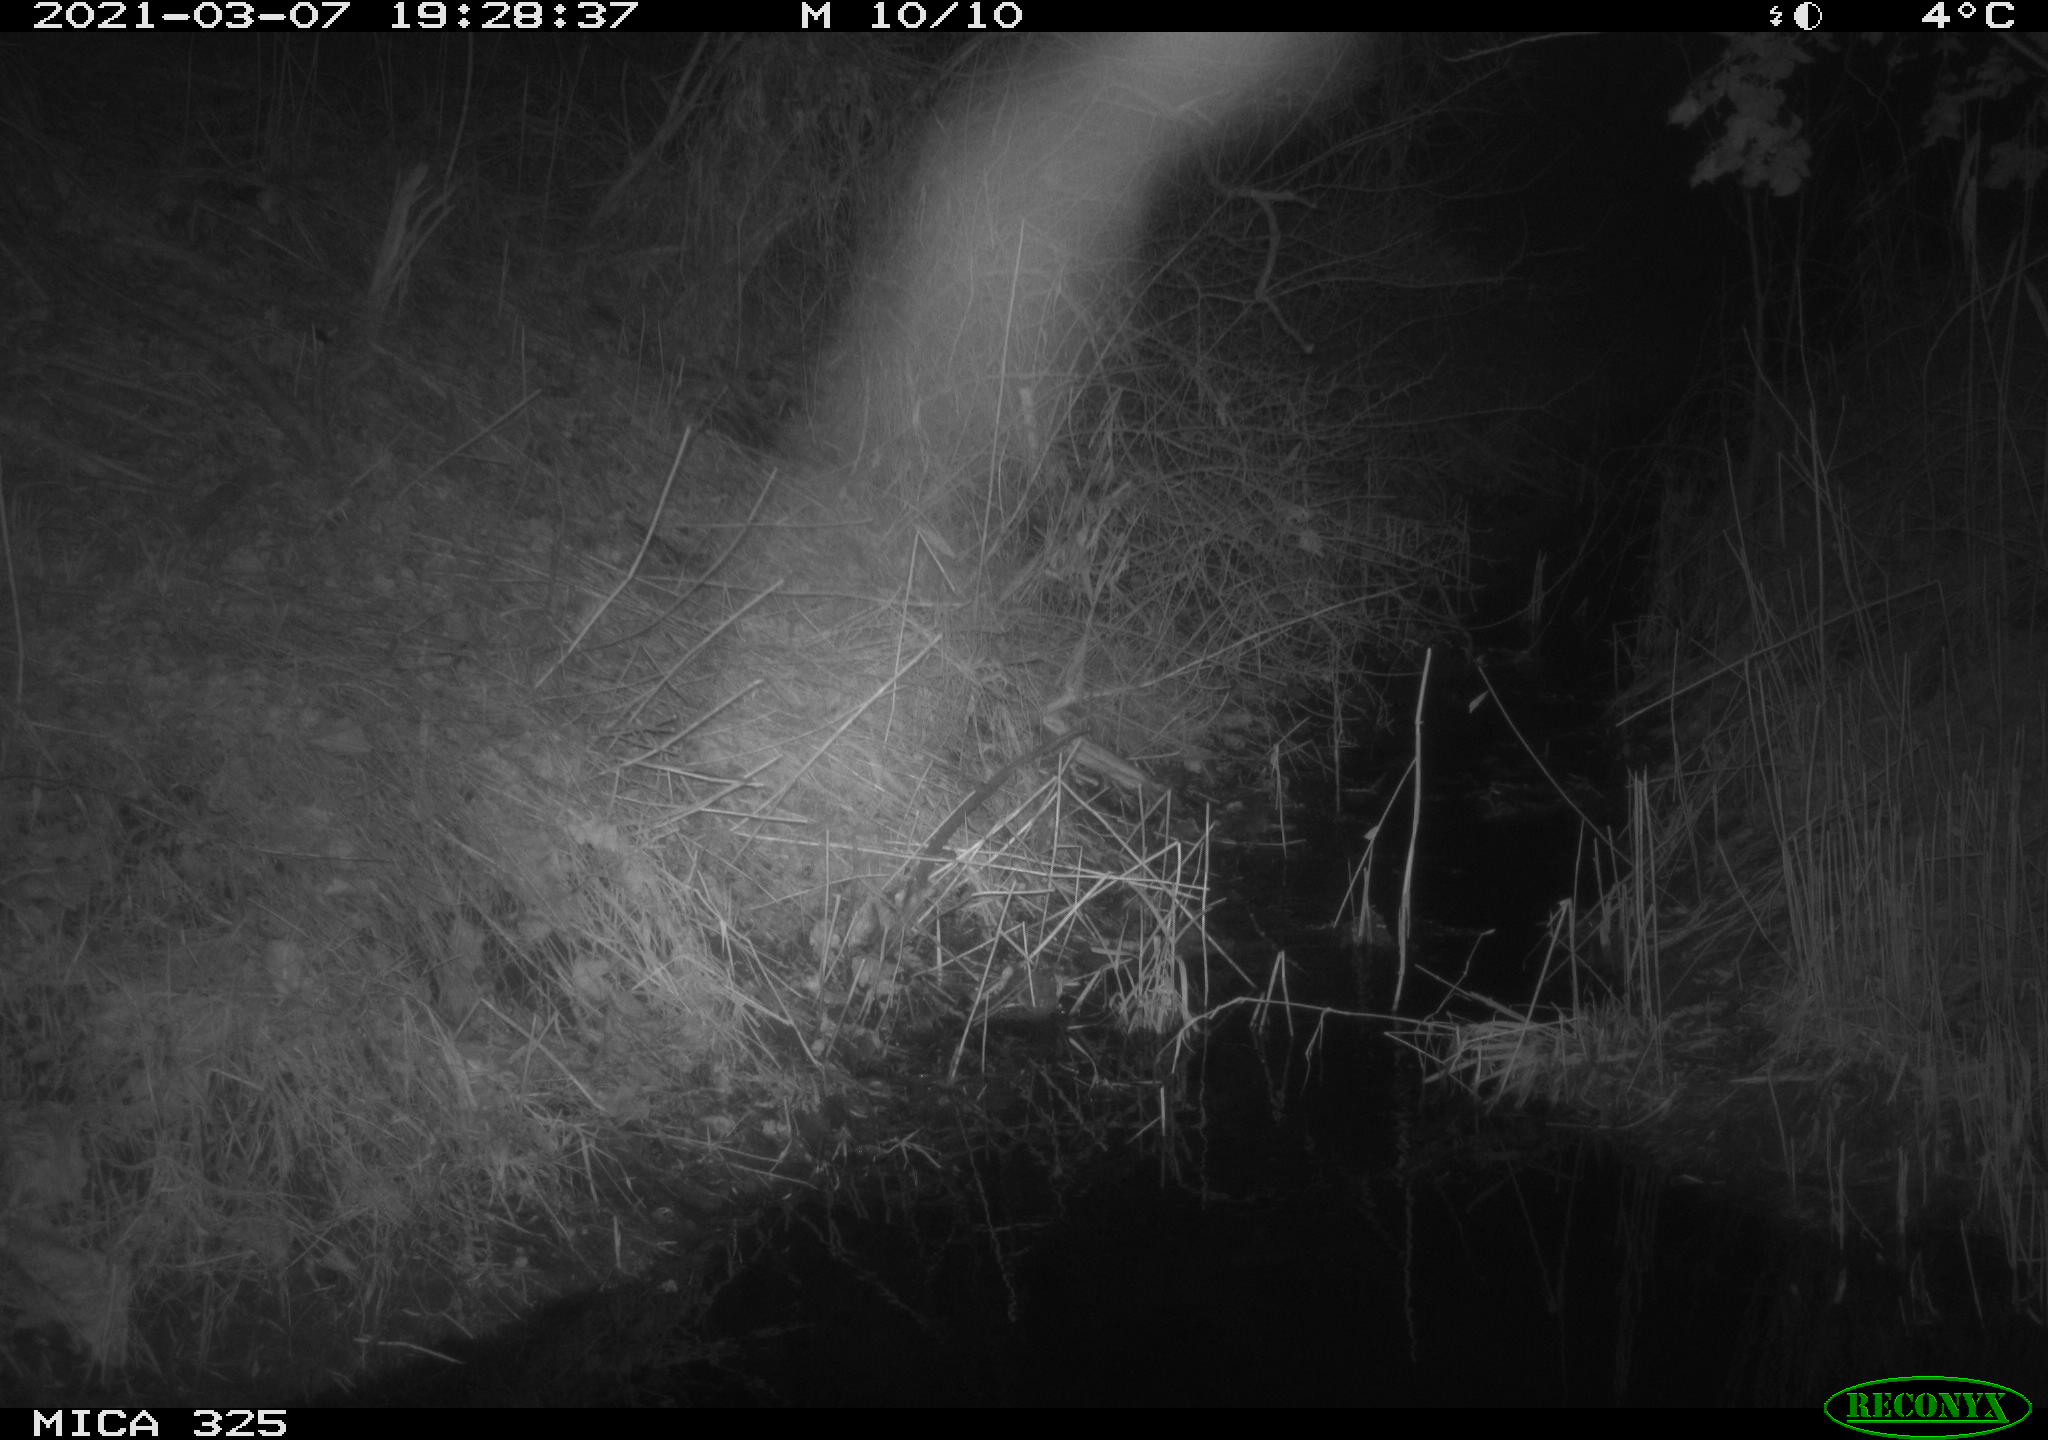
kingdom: Animalia
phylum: Chordata
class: Mammalia
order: Artiodactyla
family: Cervidae
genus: Capreolus
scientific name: Capreolus capreolus
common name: Western roe deer
